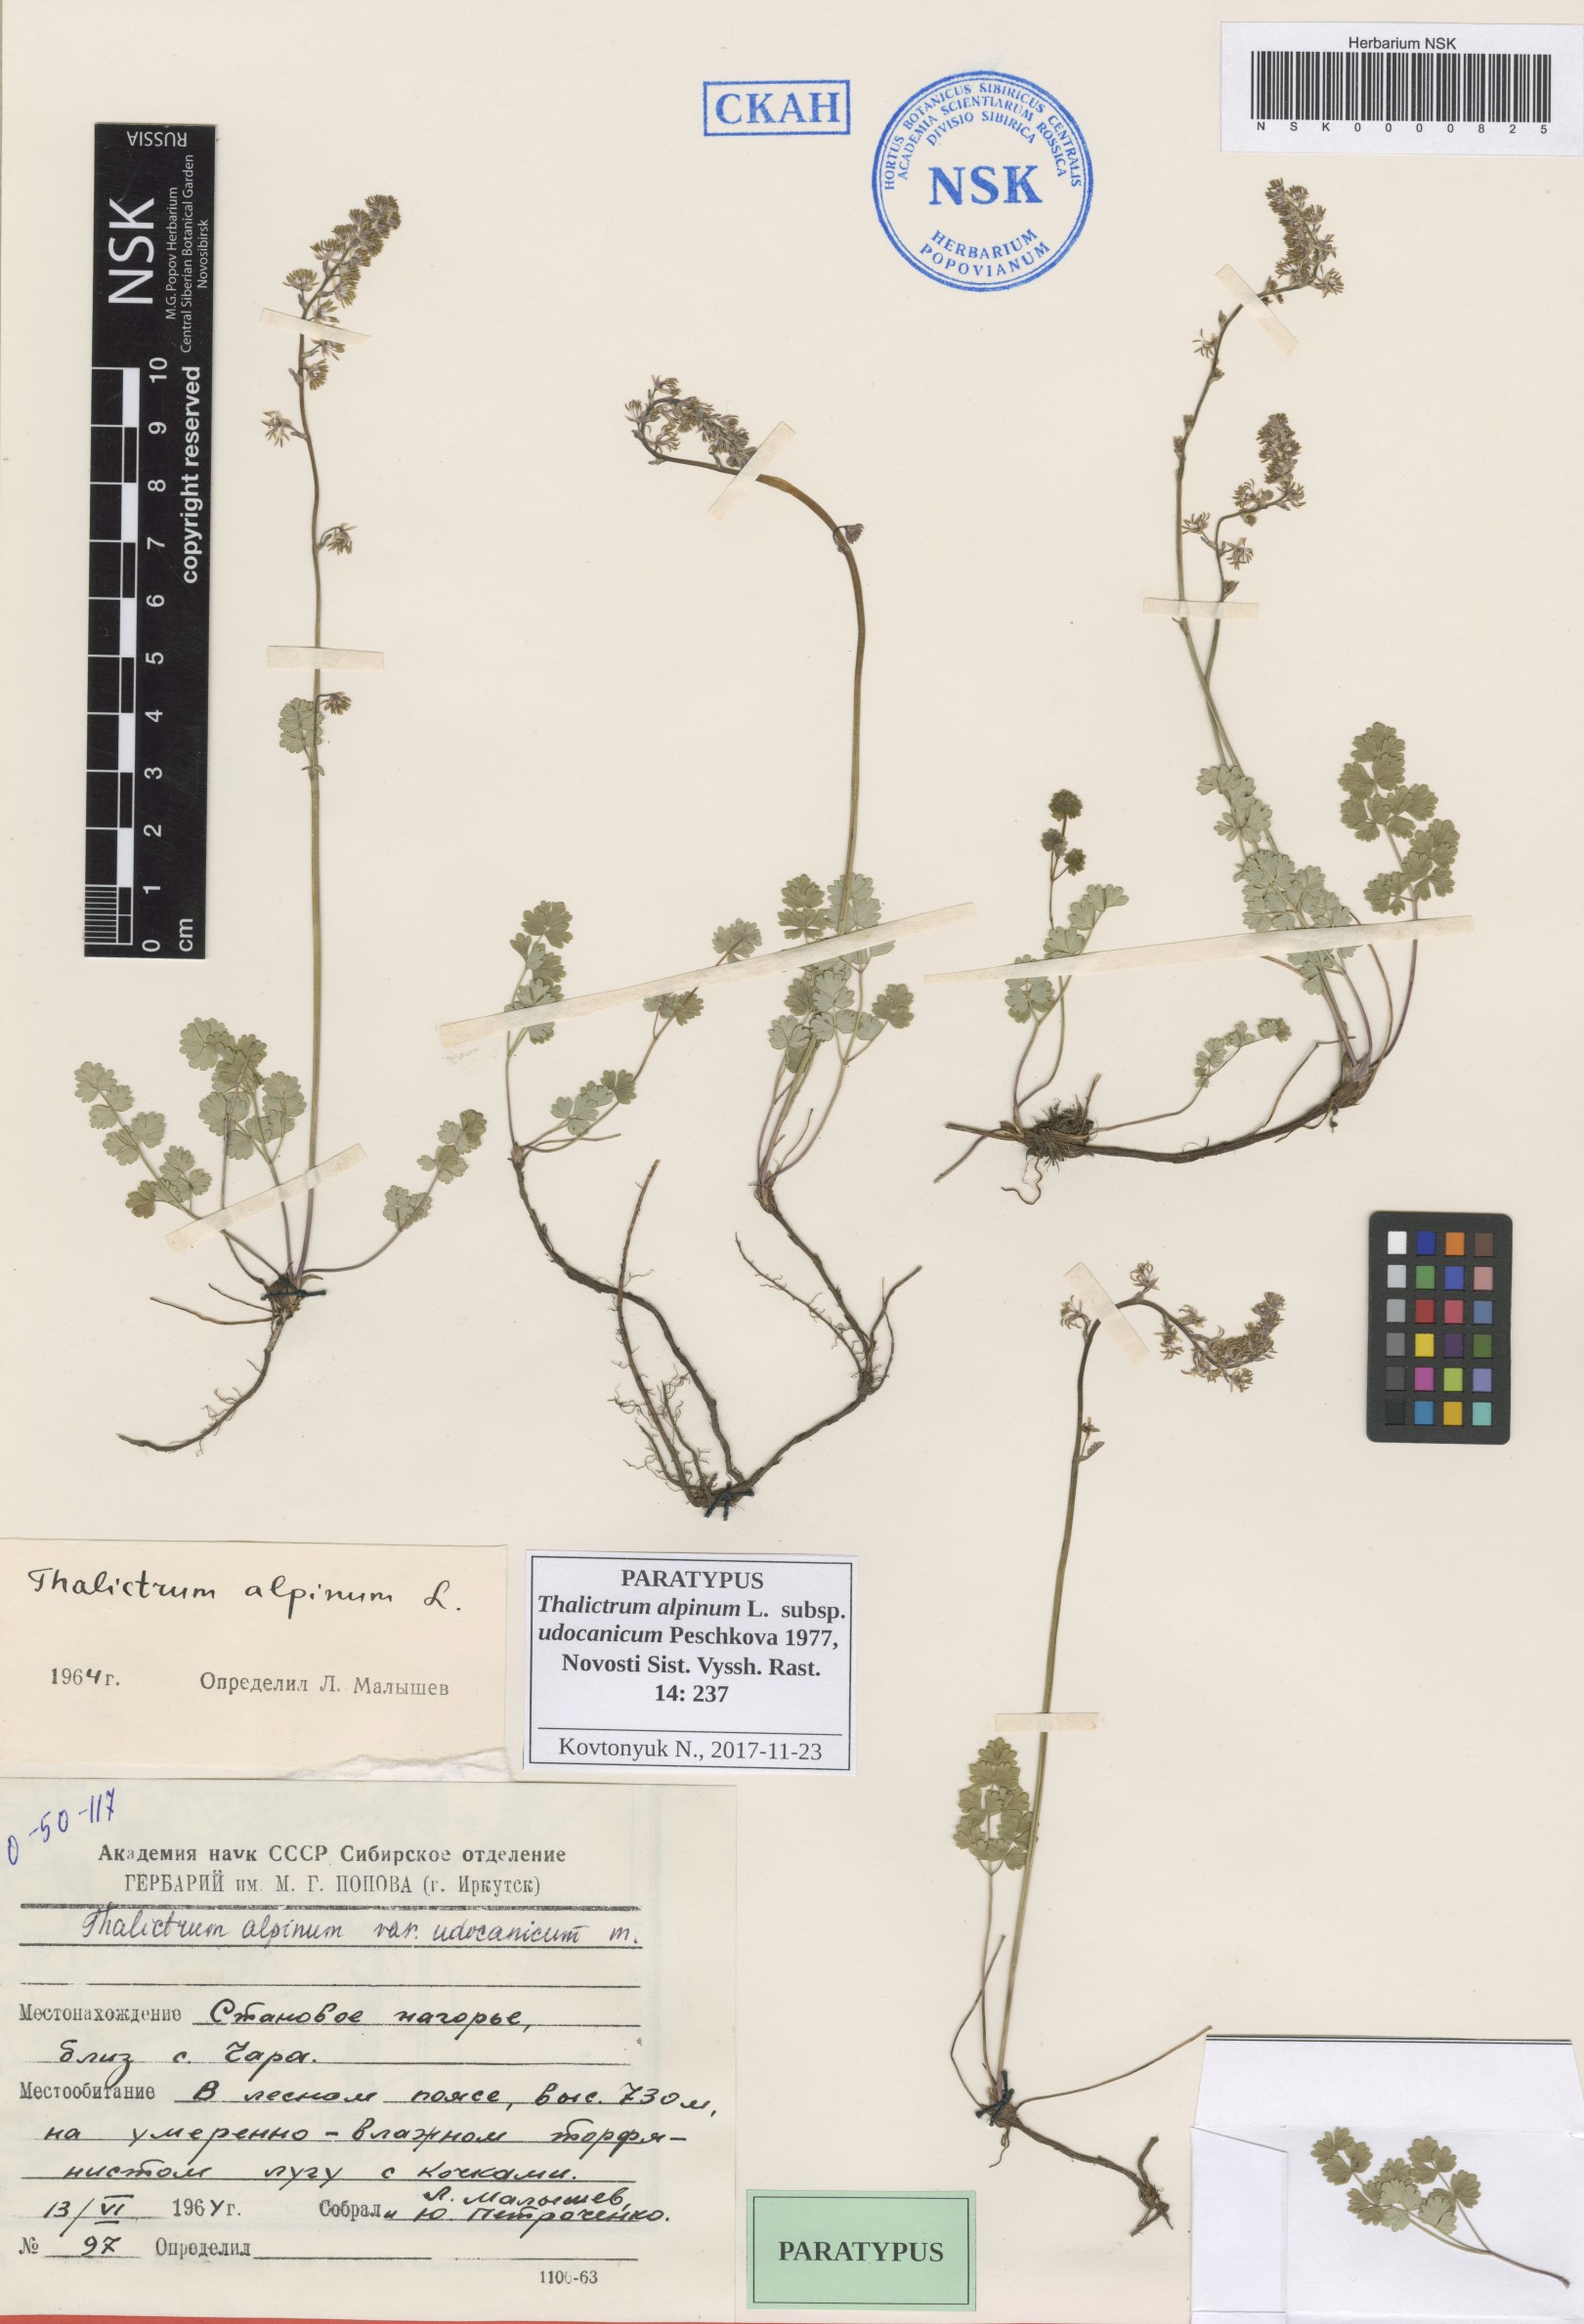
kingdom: Plantae
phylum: Tracheophyta
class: Magnoliopsida
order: Ranunculales
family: Ranunculaceae
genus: Thalictrum
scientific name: Thalictrum alpinum
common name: Alpine meadow-rue
